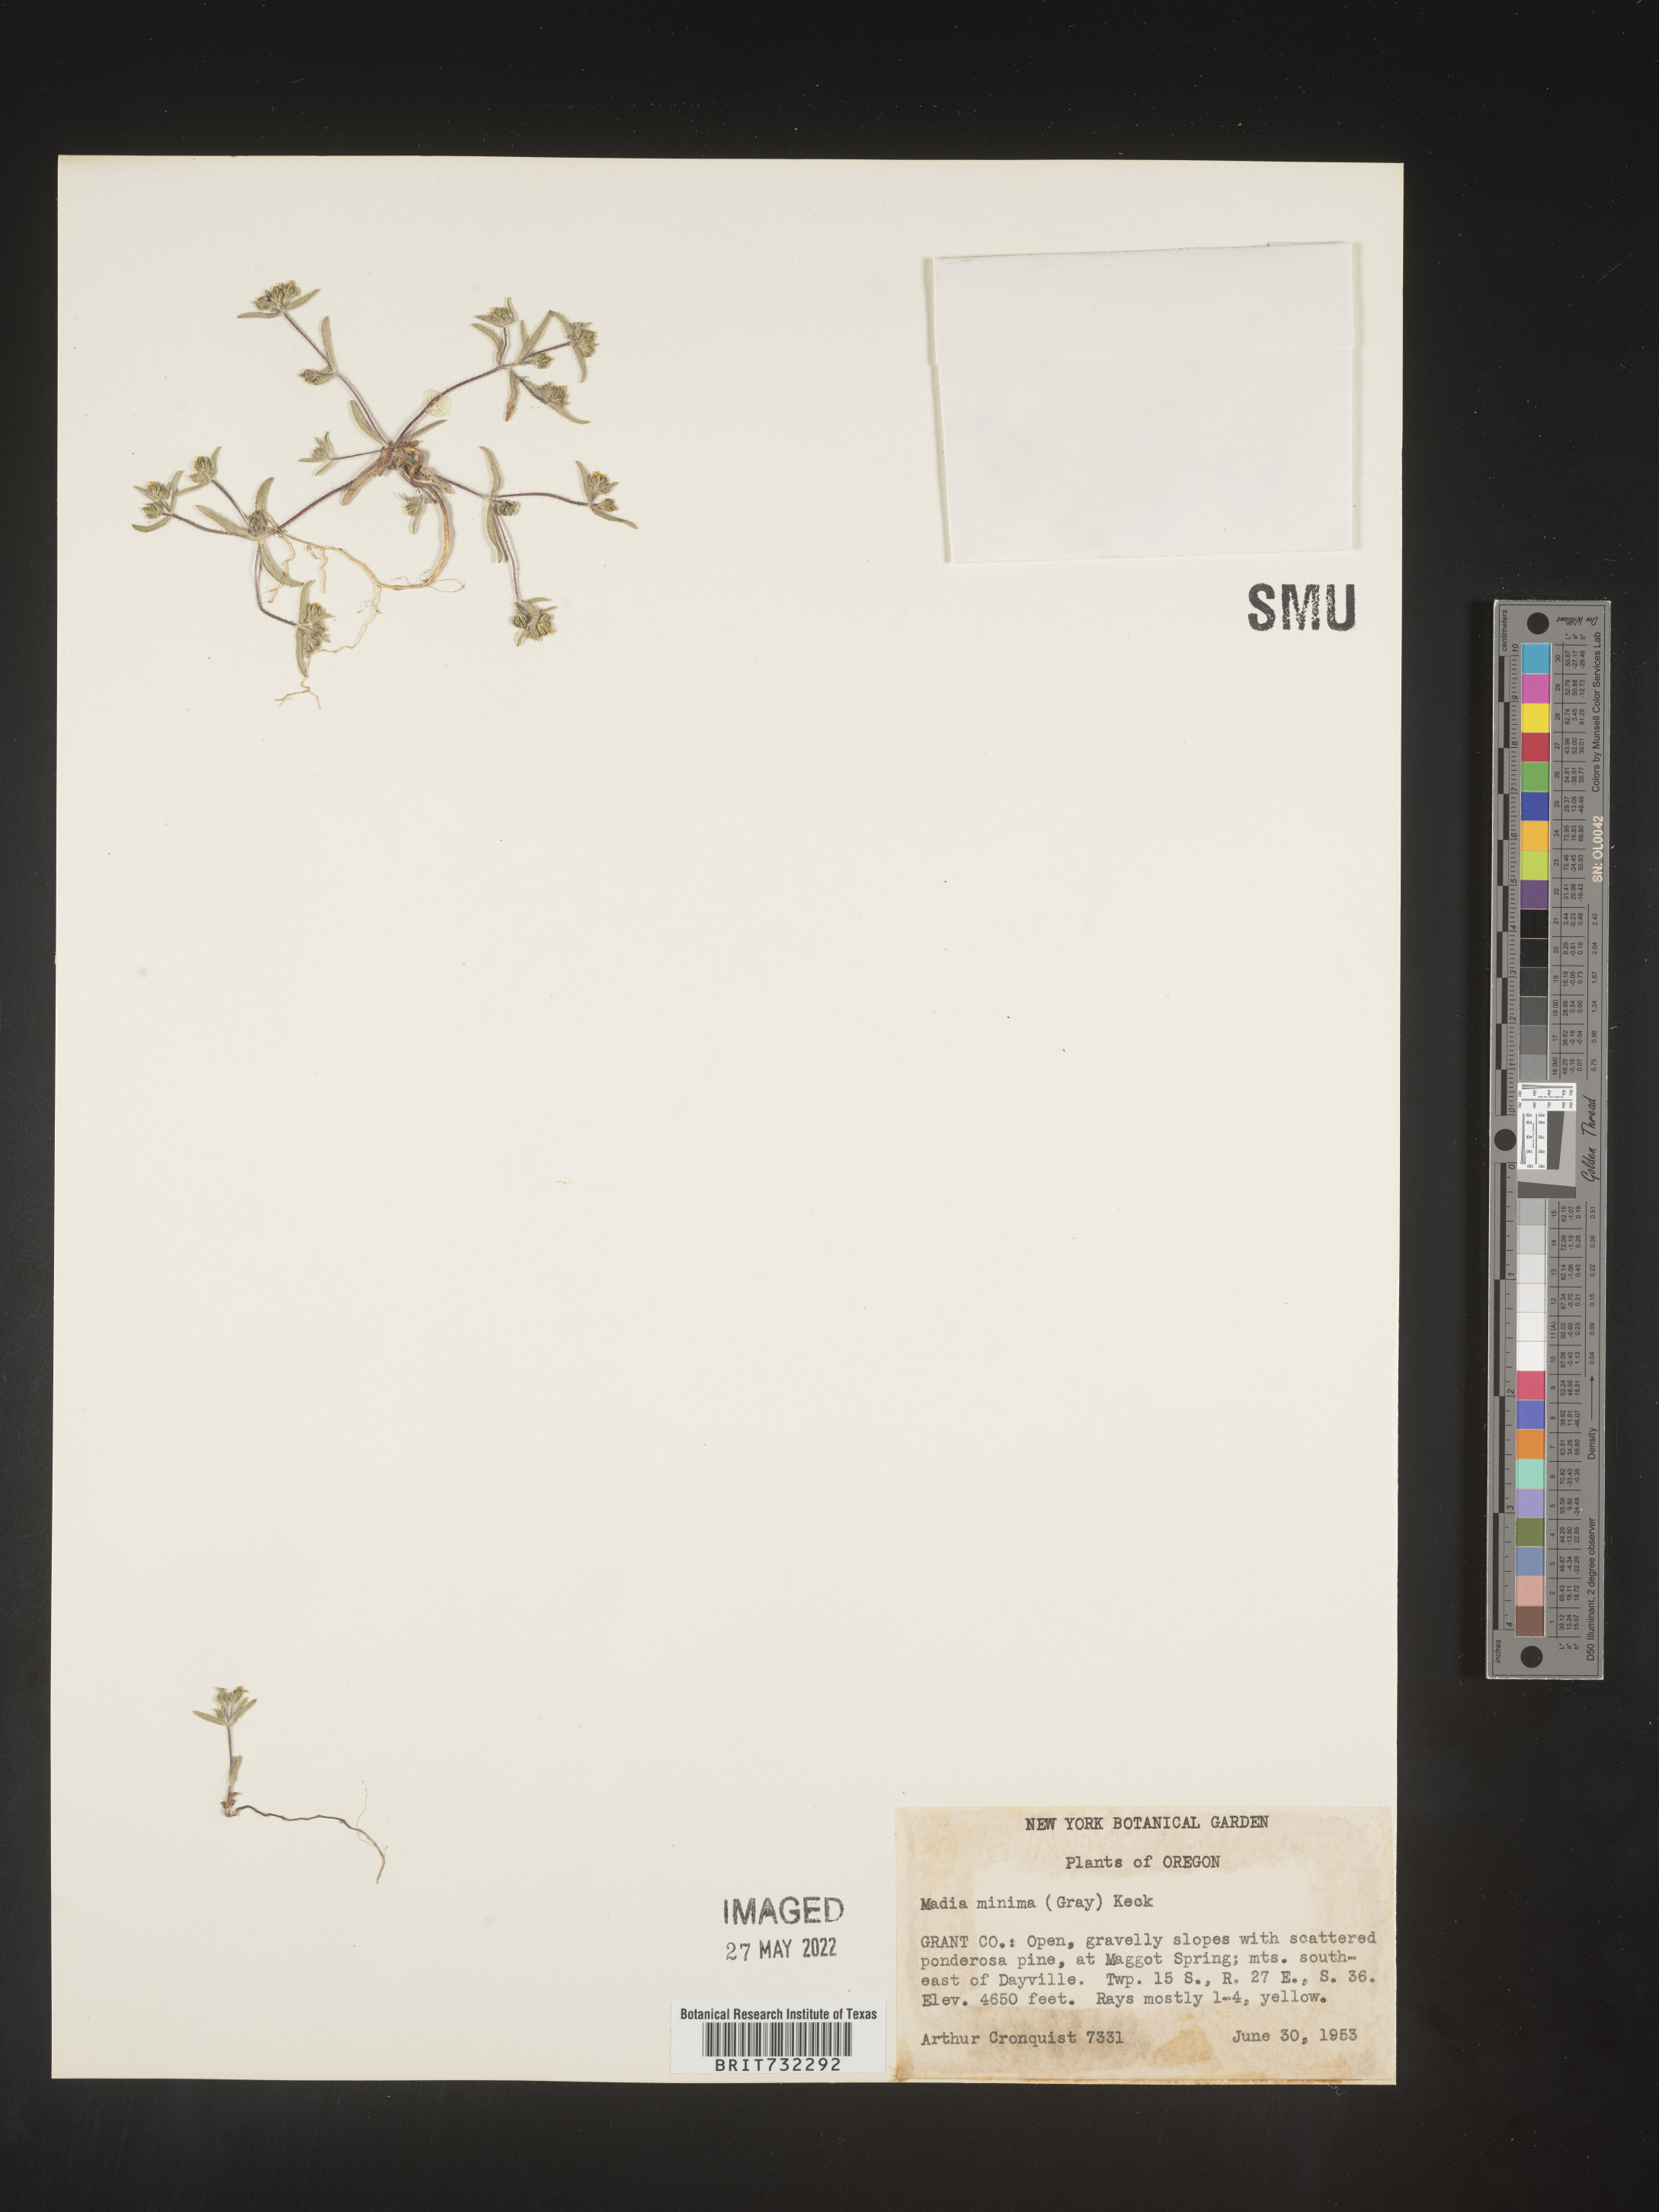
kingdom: Plantae
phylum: Tracheophyta
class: Magnoliopsida
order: Asterales
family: Asteraceae
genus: Madia
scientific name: Madia
